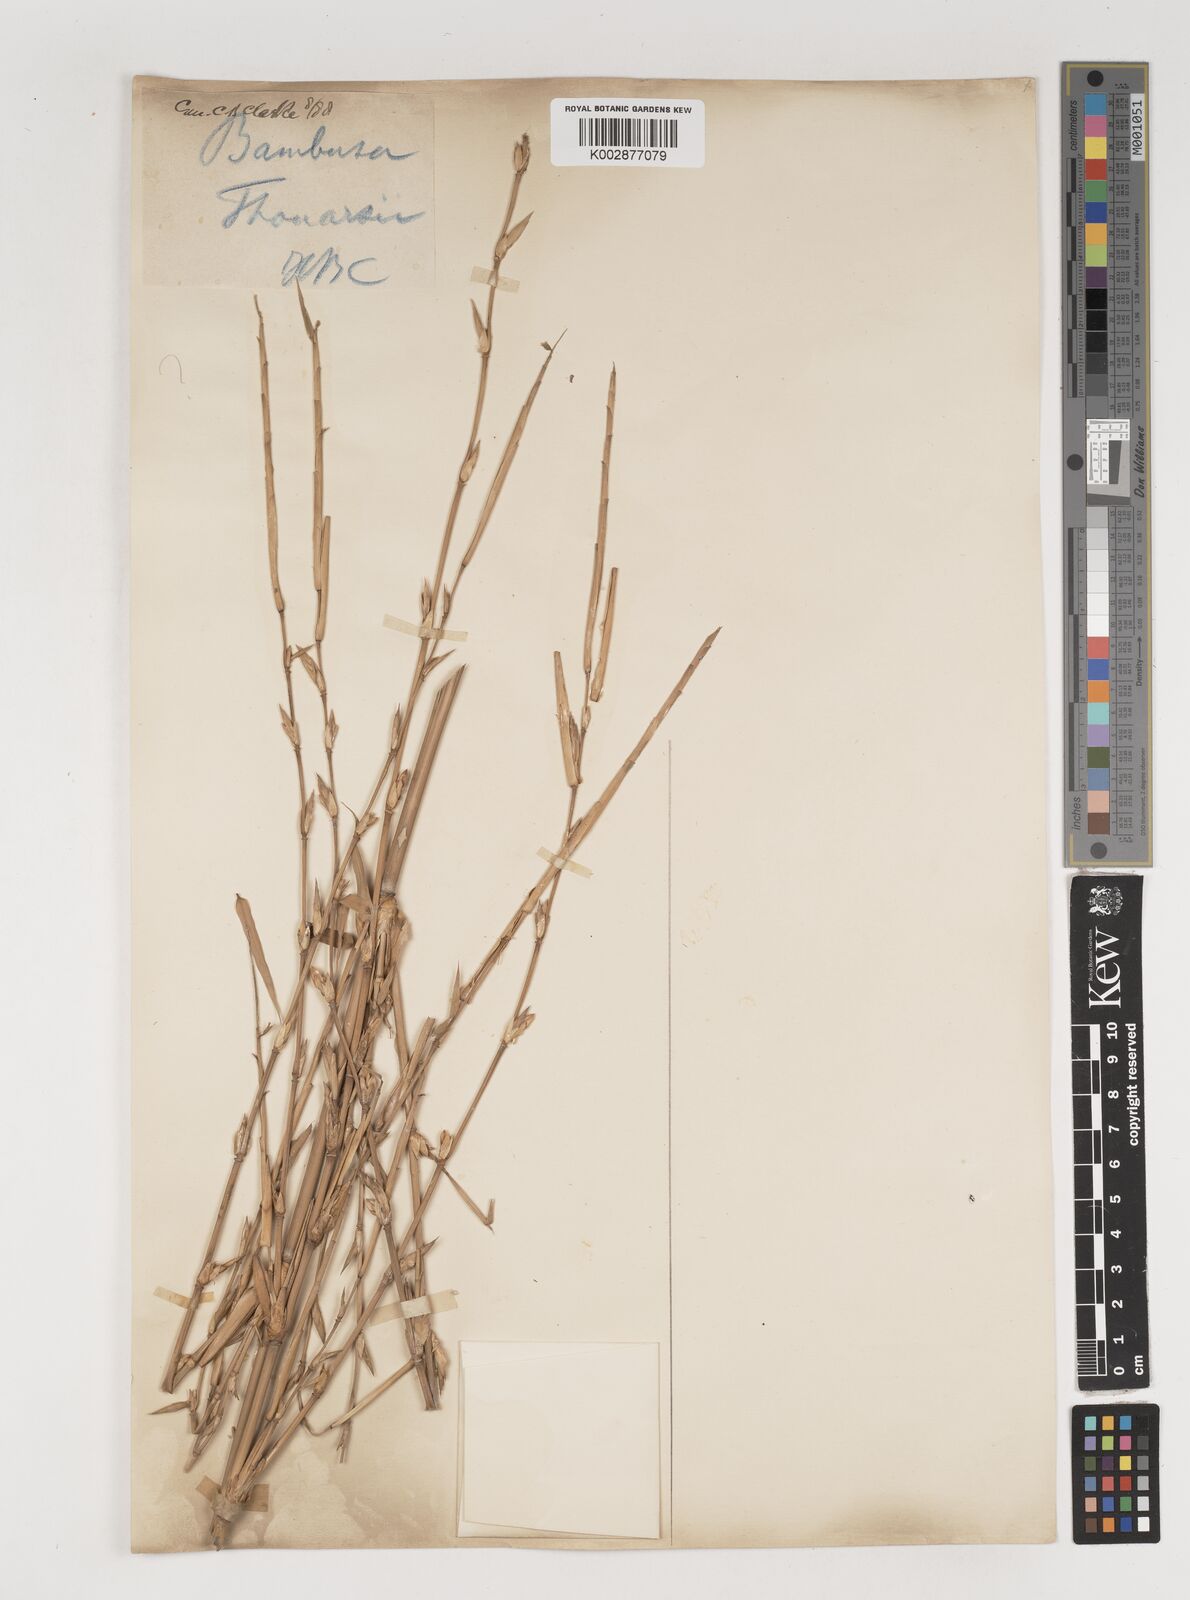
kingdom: Plantae
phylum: Tracheophyta
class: Liliopsida
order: Poales
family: Poaceae
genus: Bambusa
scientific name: Bambusa balcooa
